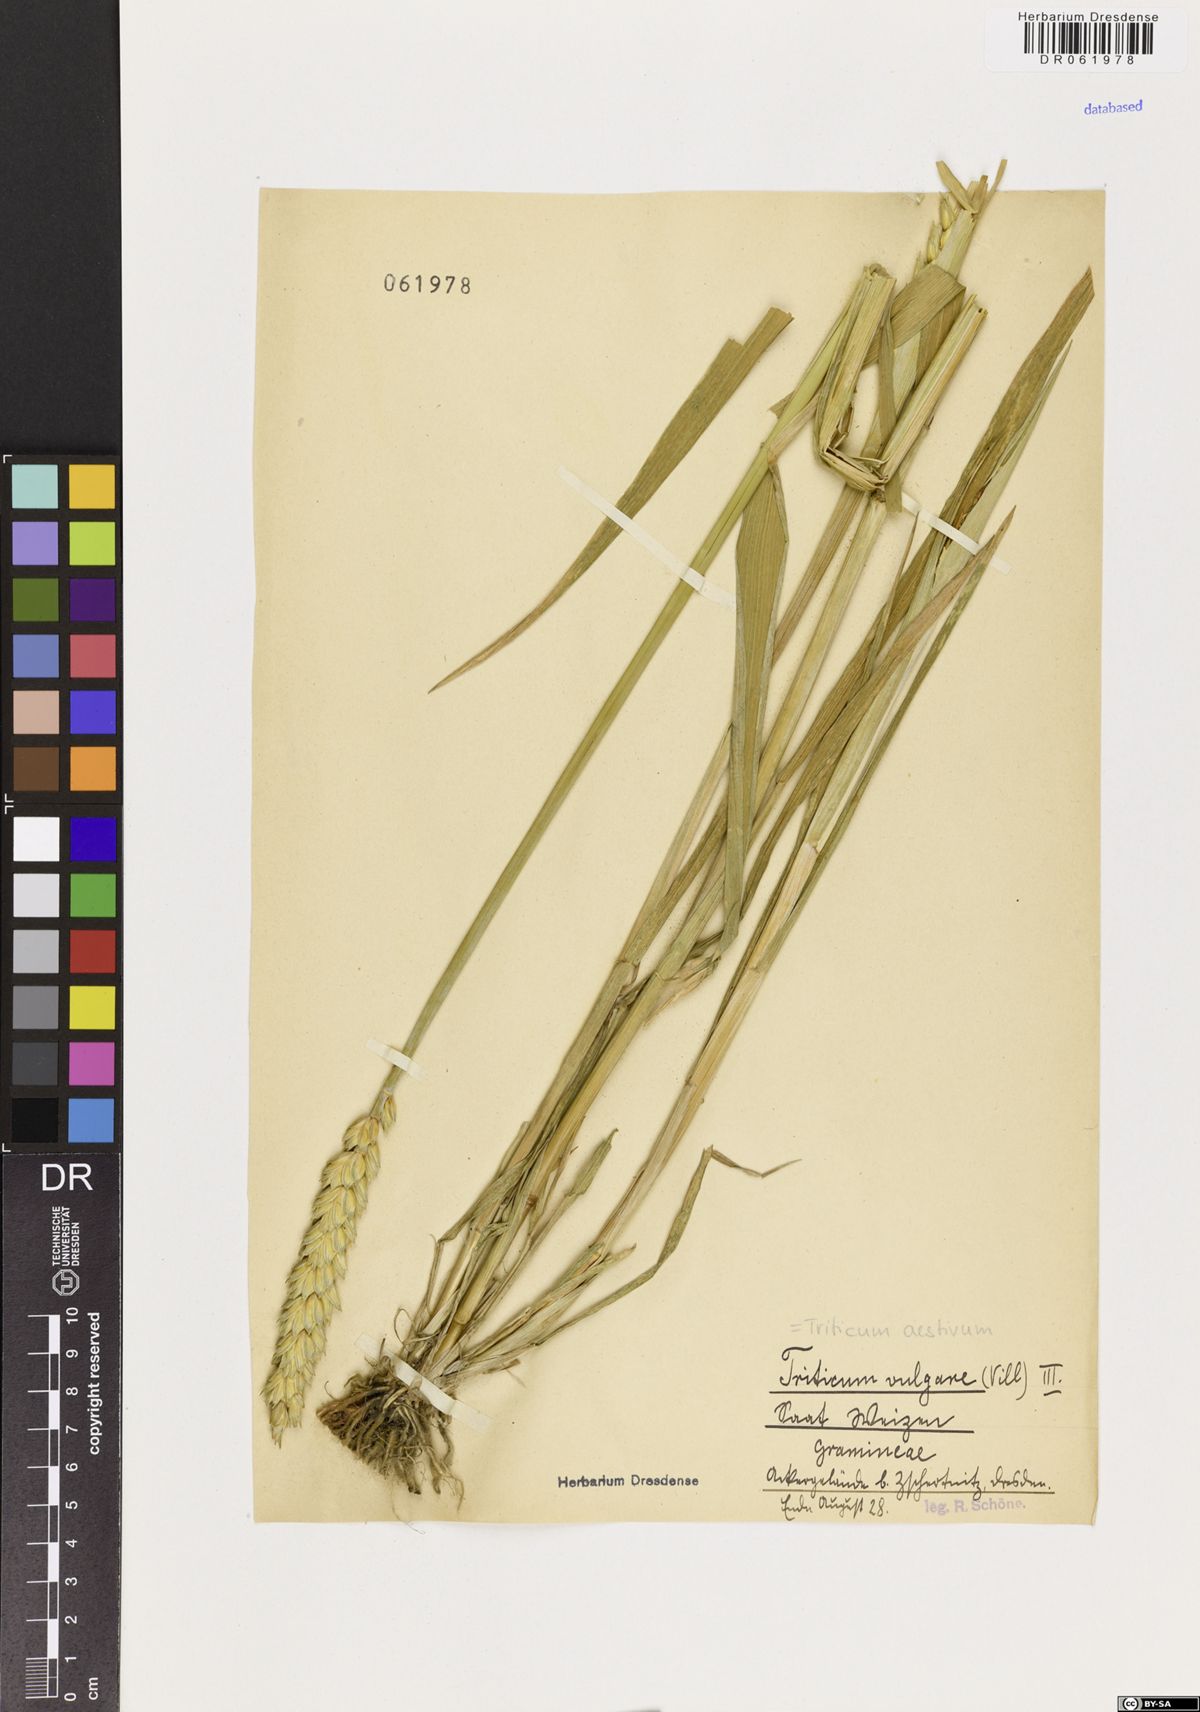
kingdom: Plantae
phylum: Tracheophyta
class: Liliopsida
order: Poales
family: Poaceae
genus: Triticum
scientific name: Triticum aestivum
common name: Common wheat
